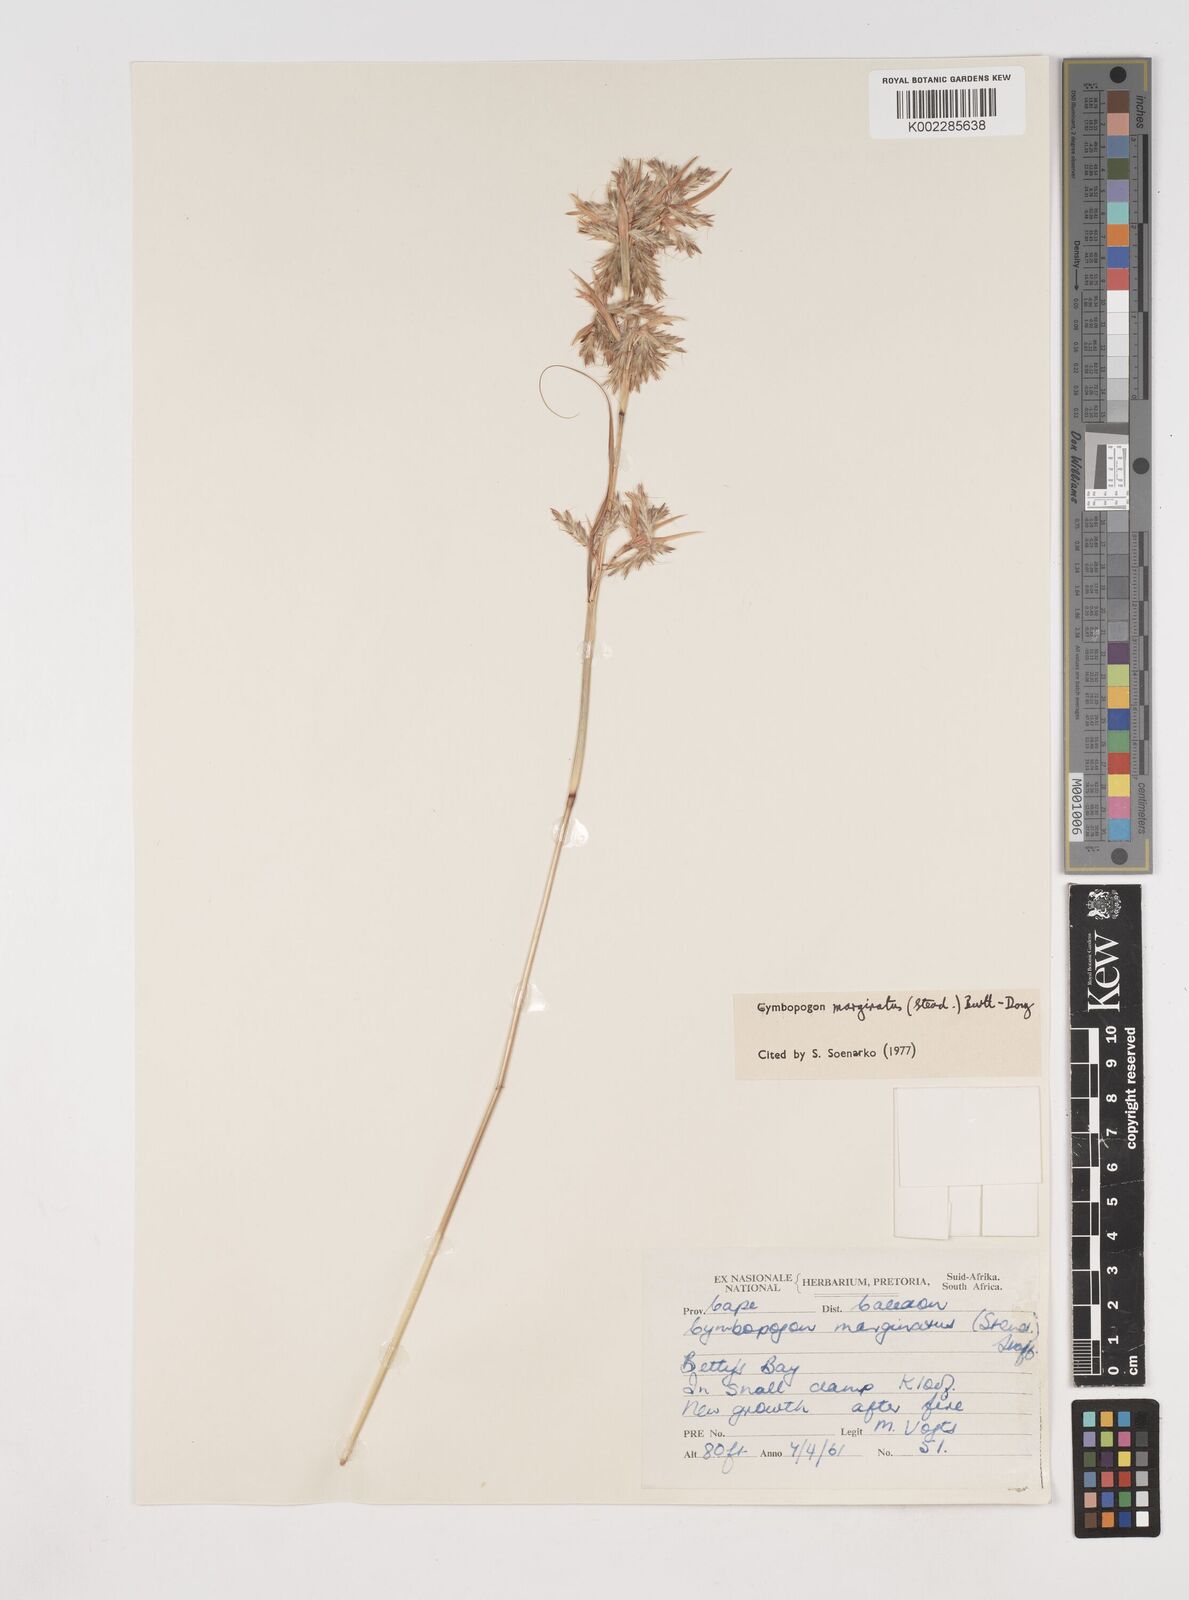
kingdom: Plantae
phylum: Tracheophyta
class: Liliopsida
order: Poales
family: Poaceae
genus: Cymbopogon
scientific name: Cymbopogon marginatus
